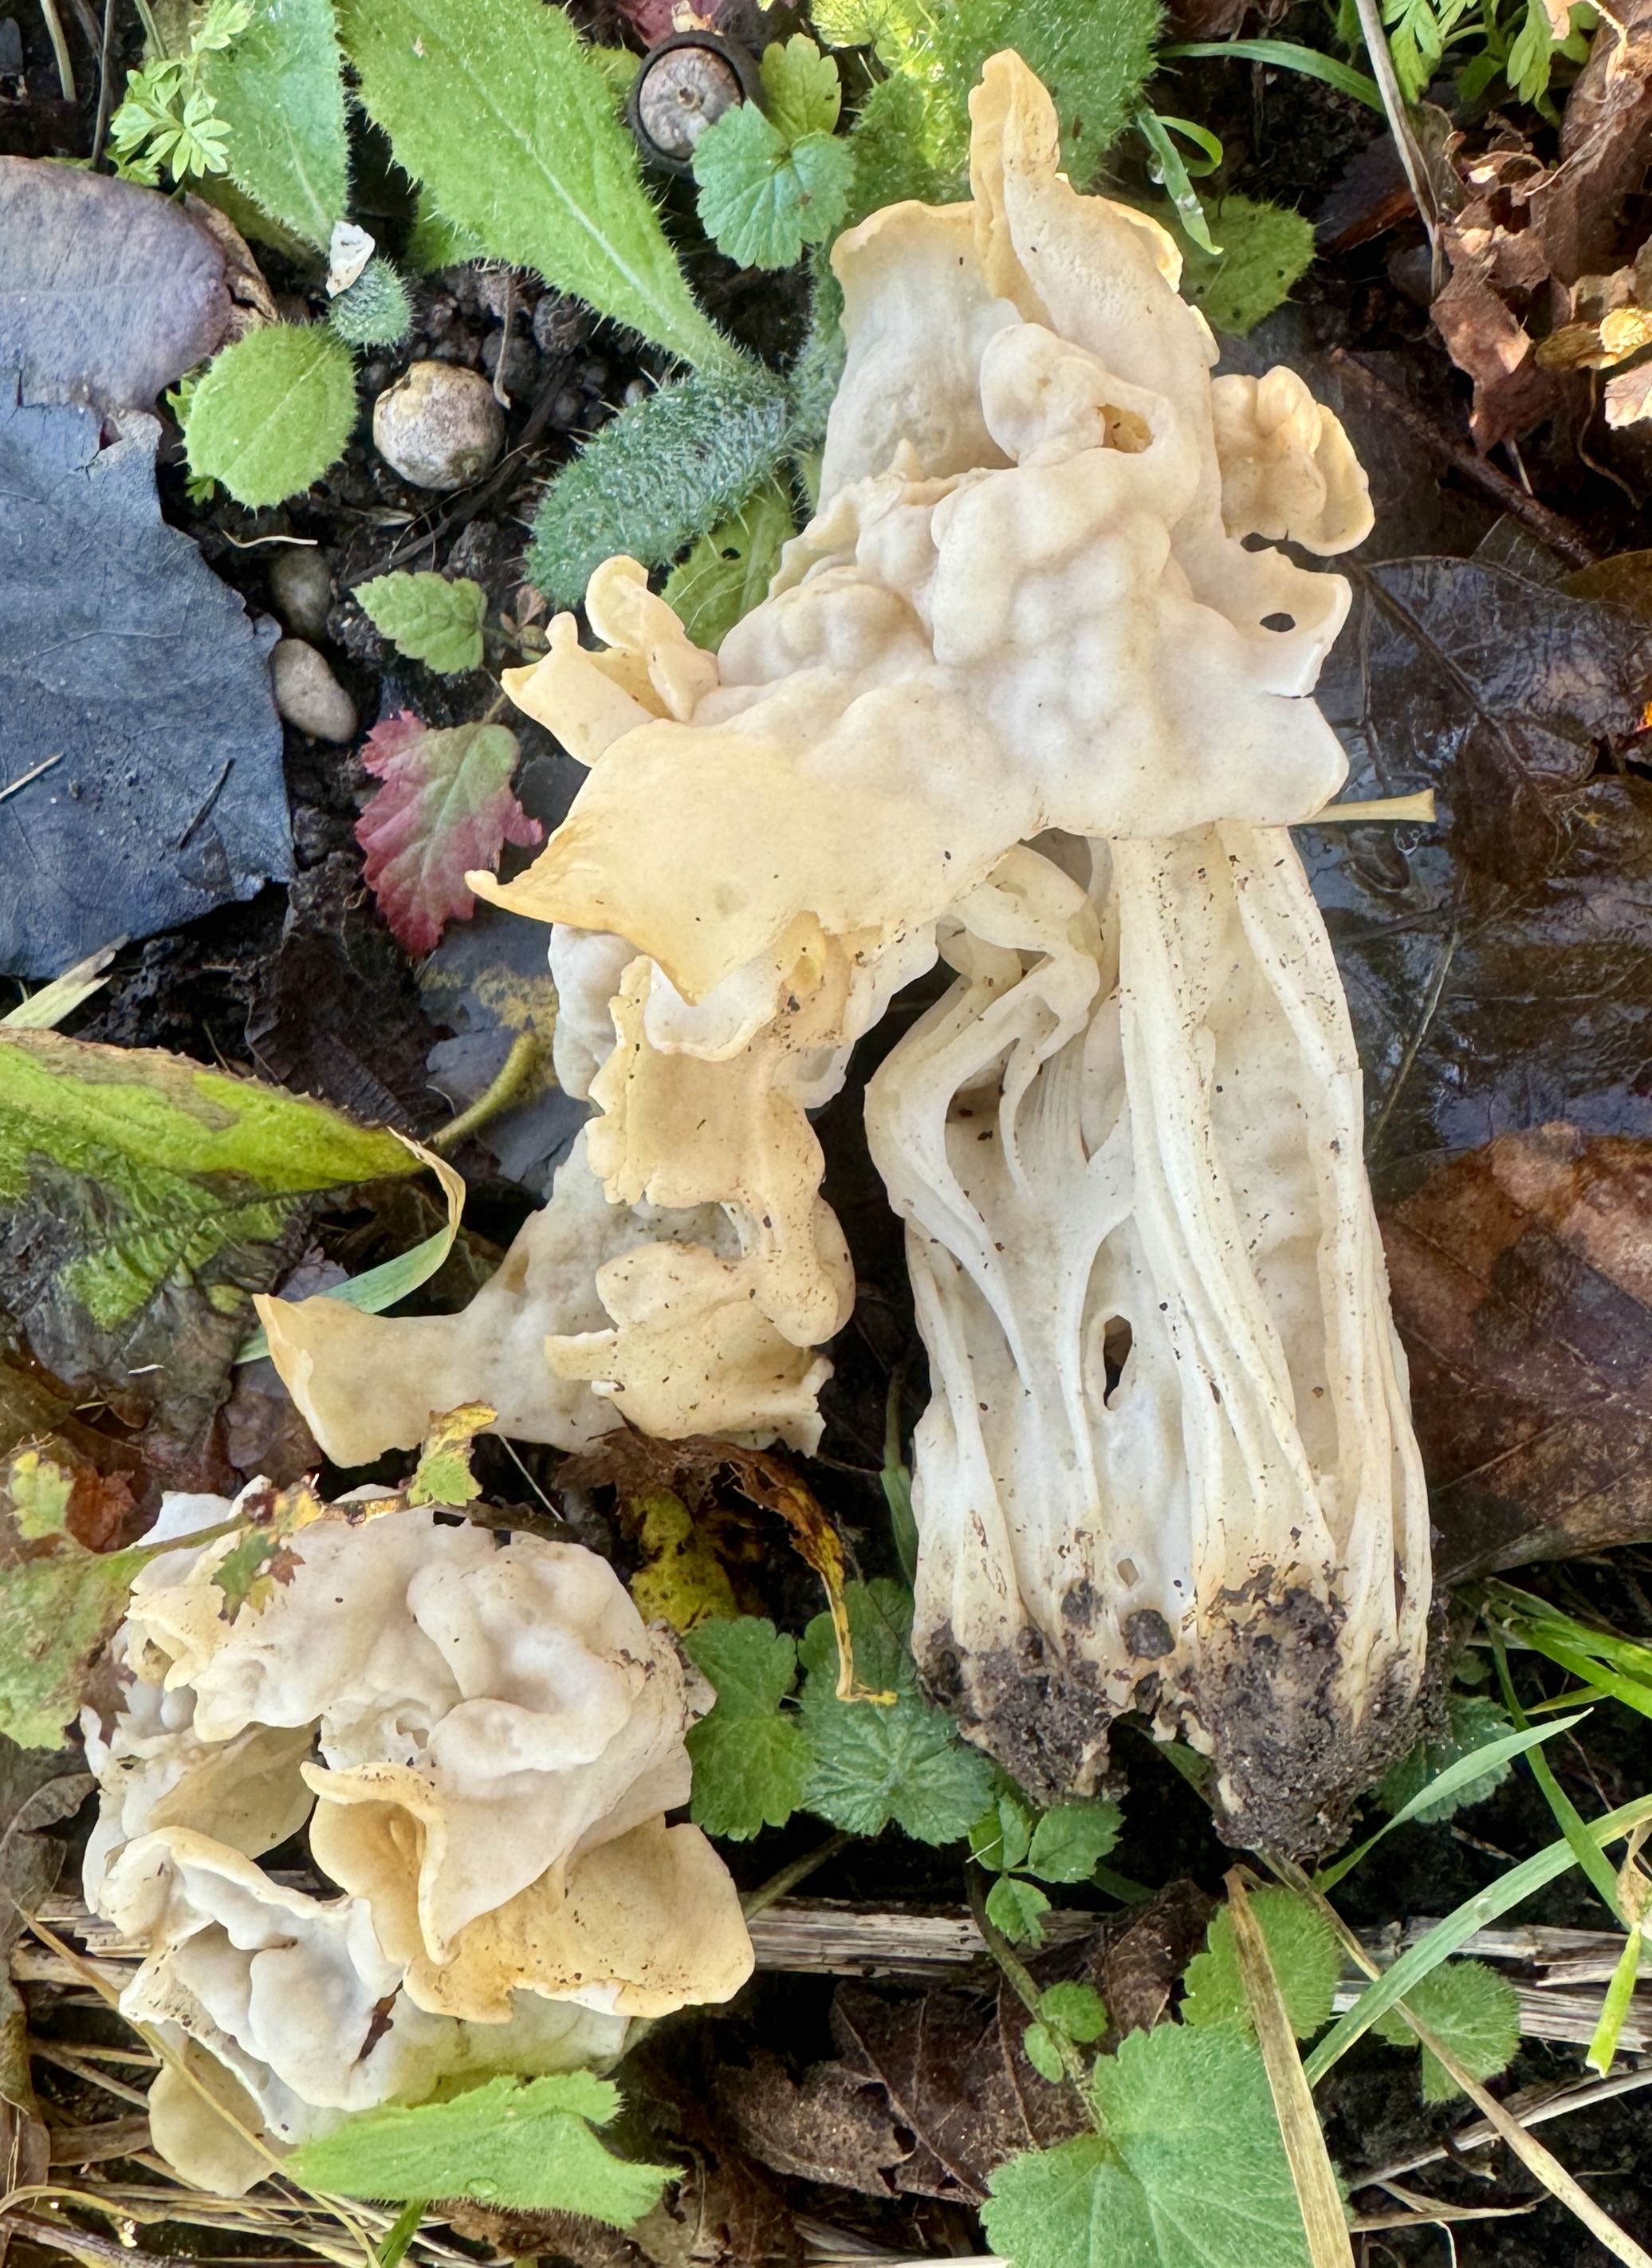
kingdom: Fungi
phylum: Ascomycota
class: Pezizomycetes
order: Pezizales
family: Helvellaceae
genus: Helvella
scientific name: Helvella crispa
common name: kruset foldhat
